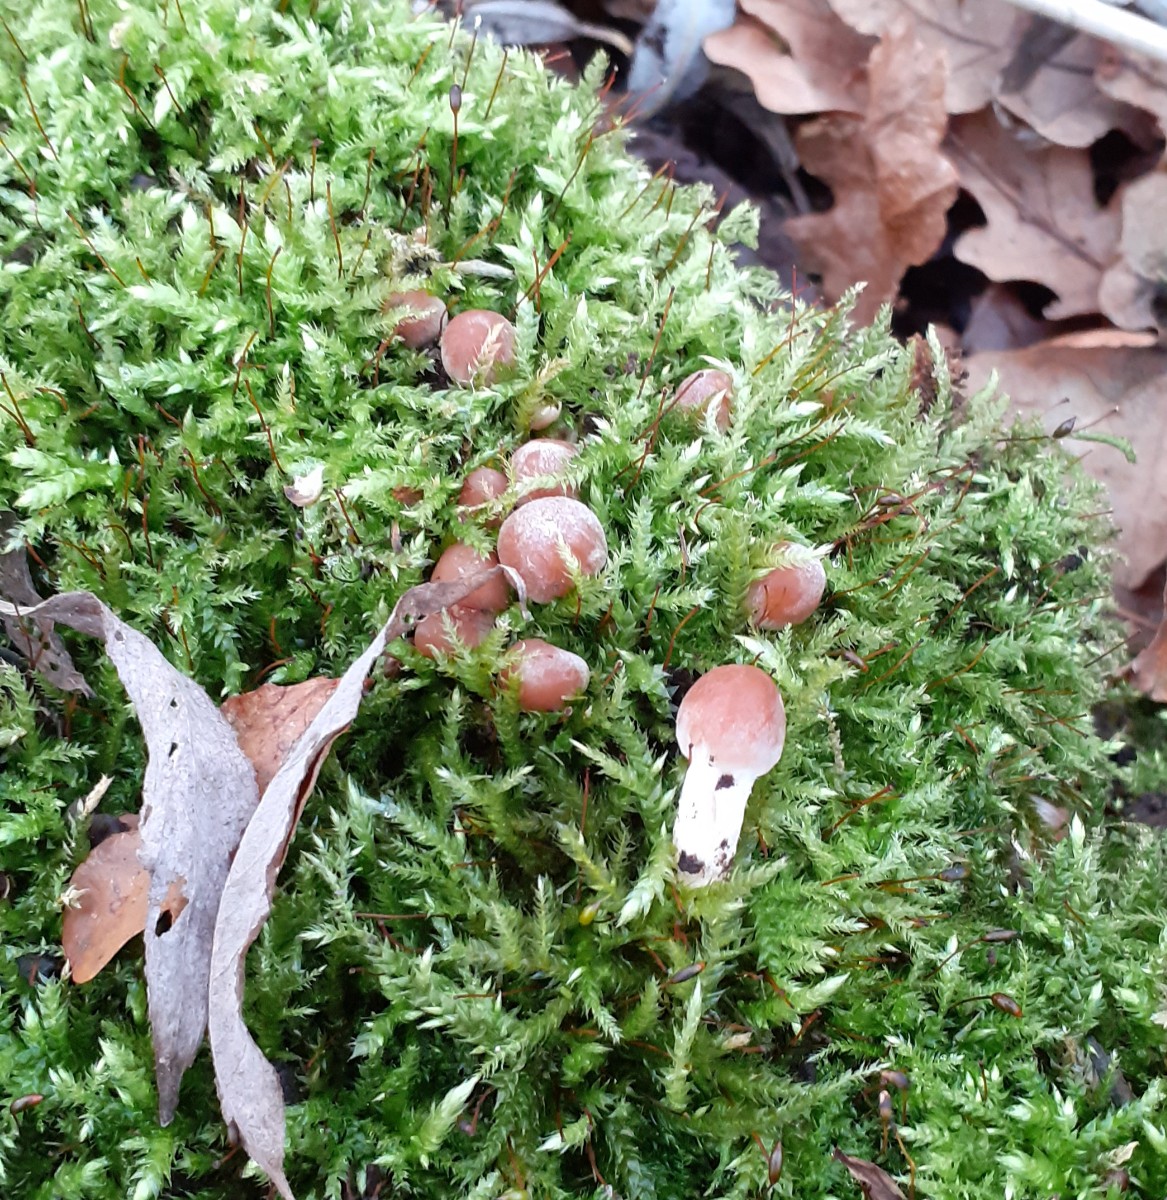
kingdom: Fungi
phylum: Basidiomycota
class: Agaricomycetes
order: Agaricales
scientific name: Agaricales
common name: champignonordenen
